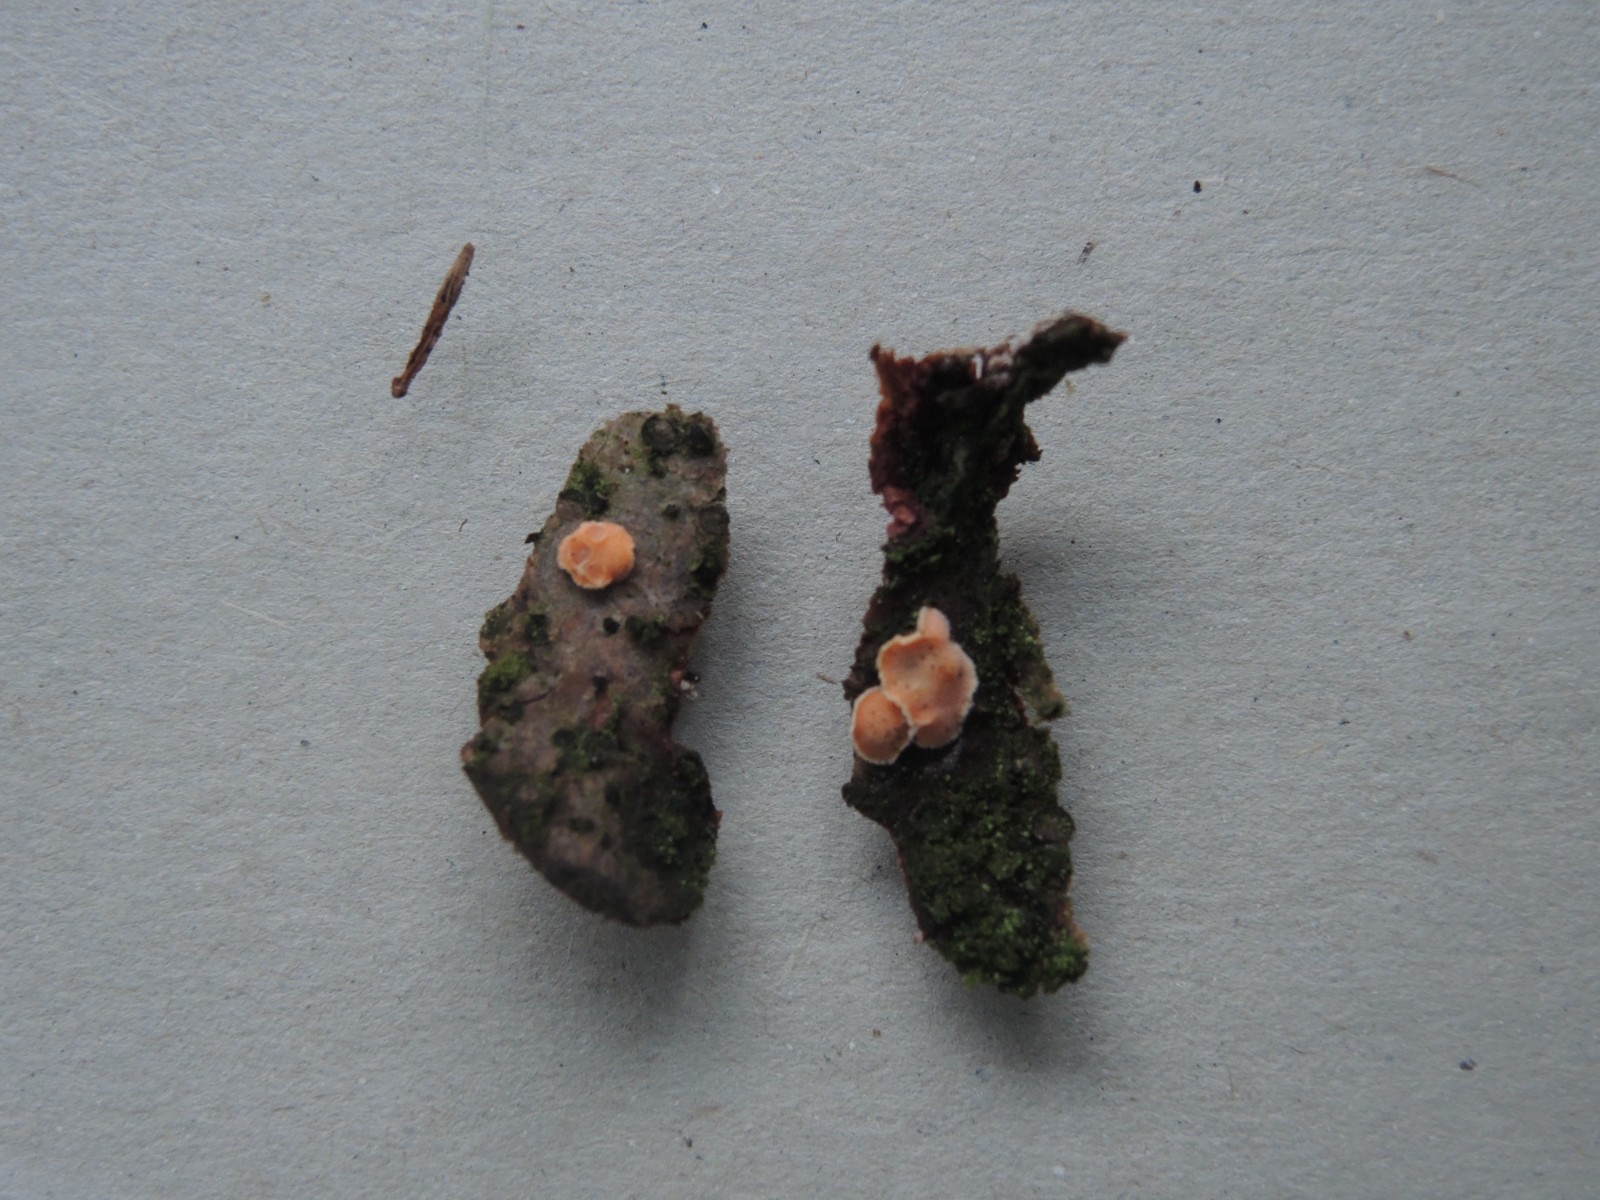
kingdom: Fungi
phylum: Basidiomycota
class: Agaricomycetes
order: Russulales
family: Stereaceae
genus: Aleurodiscus
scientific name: Aleurodiscus amorphus
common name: orange skiveskorpe
